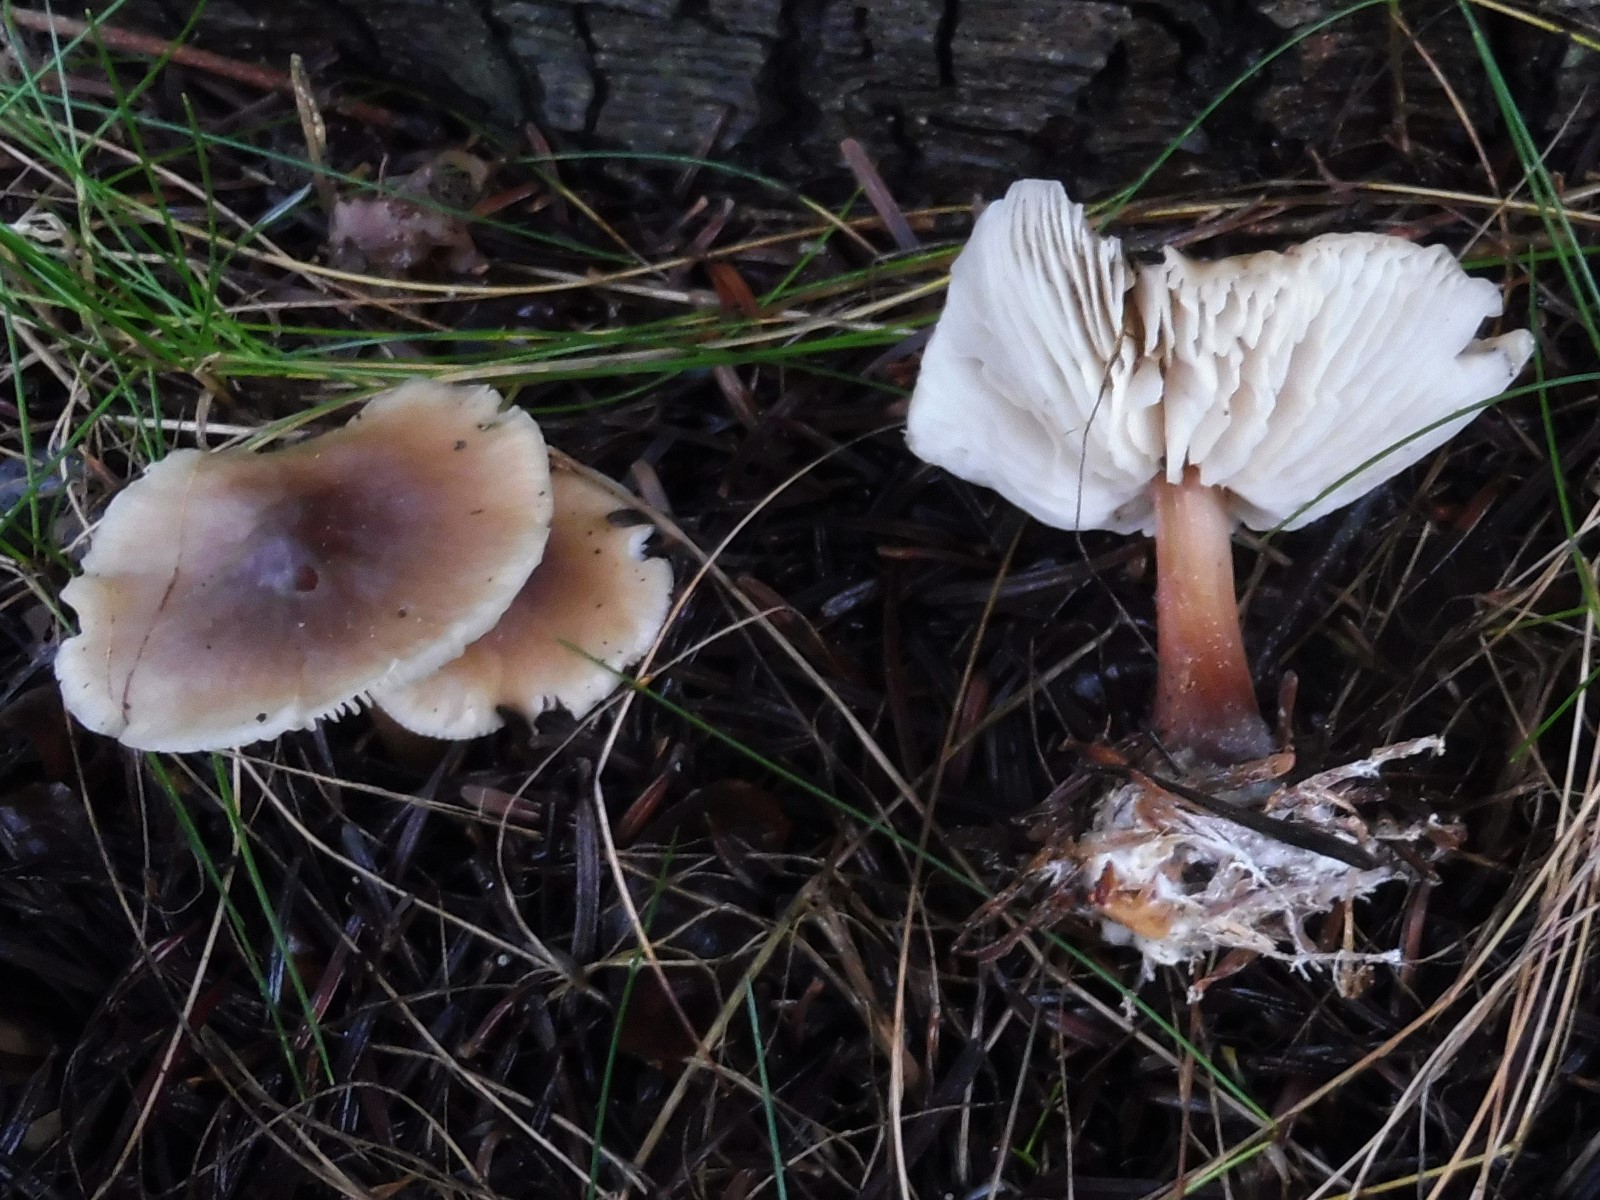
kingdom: Fungi
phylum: Basidiomycota
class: Agaricomycetes
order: Agaricales
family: Omphalotaceae
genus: Rhodocollybia
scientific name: Rhodocollybia asema
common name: horngrå fladhat
